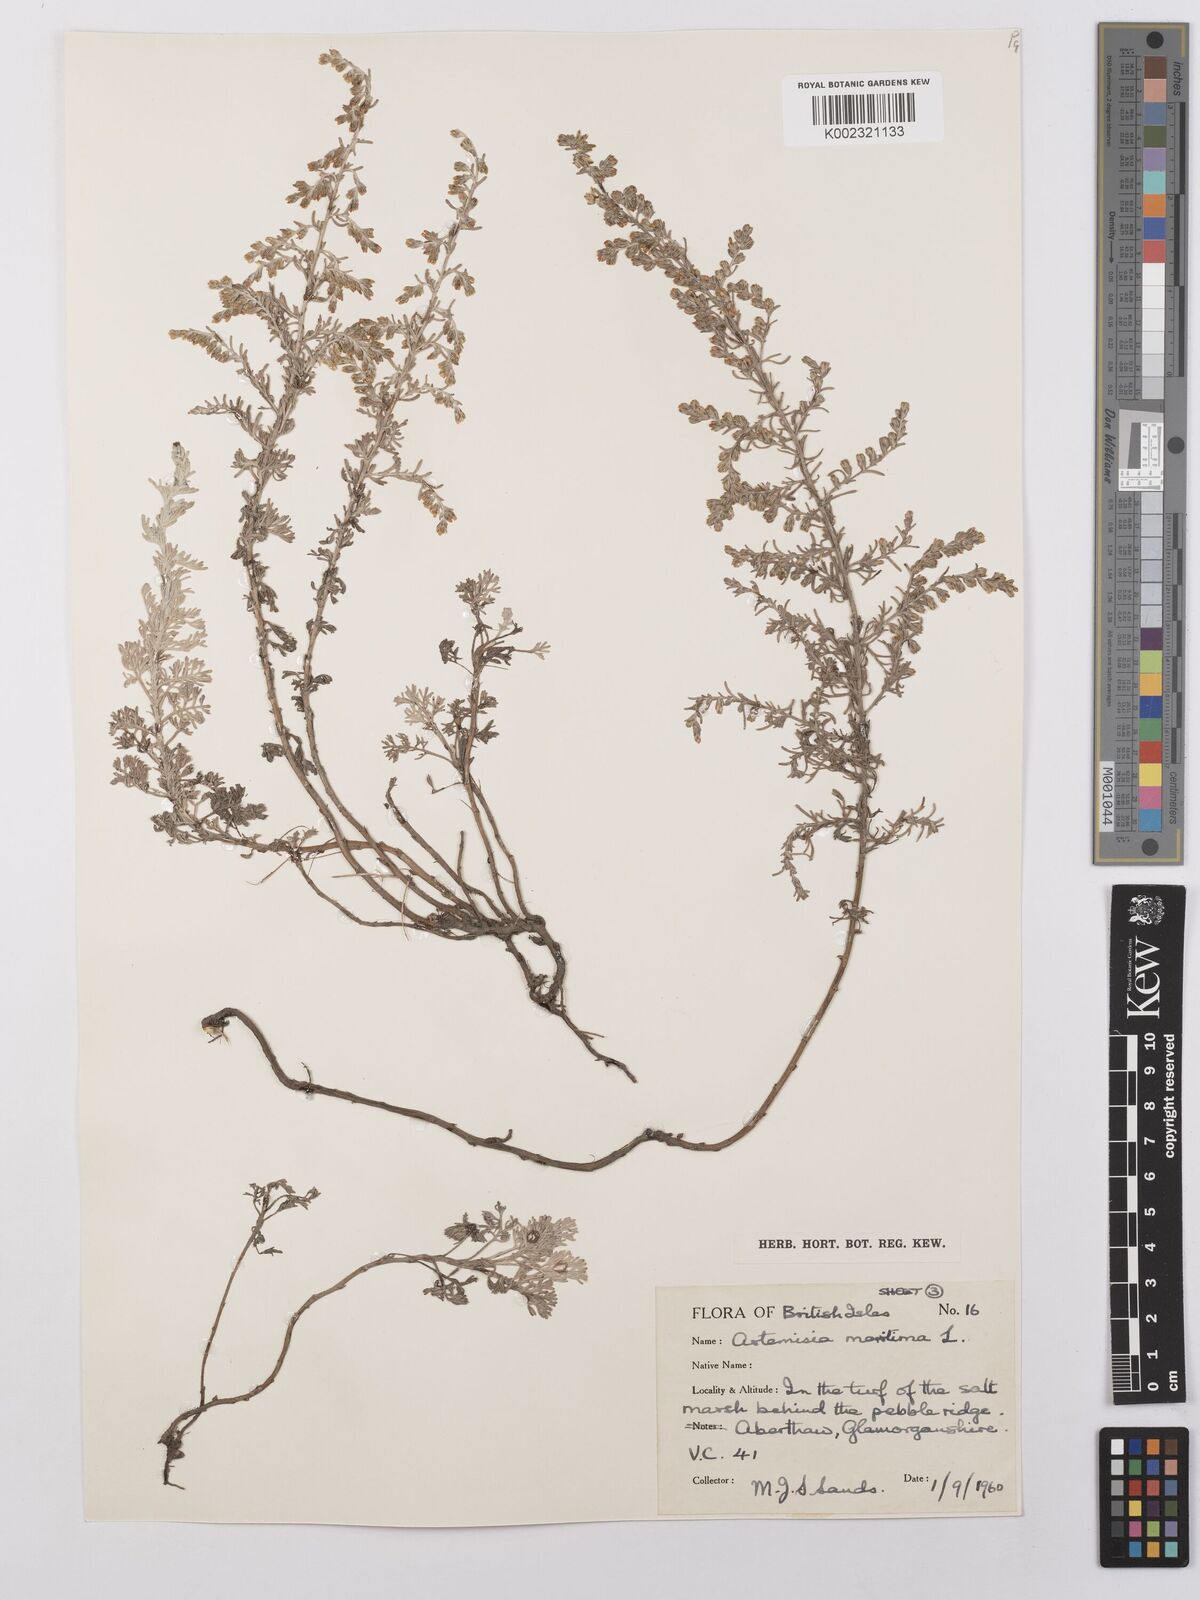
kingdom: Plantae
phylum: Tracheophyta
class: Magnoliopsida
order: Asterales
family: Asteraceae
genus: Artemisia
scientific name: Artemisia maritima
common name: Wormseed
